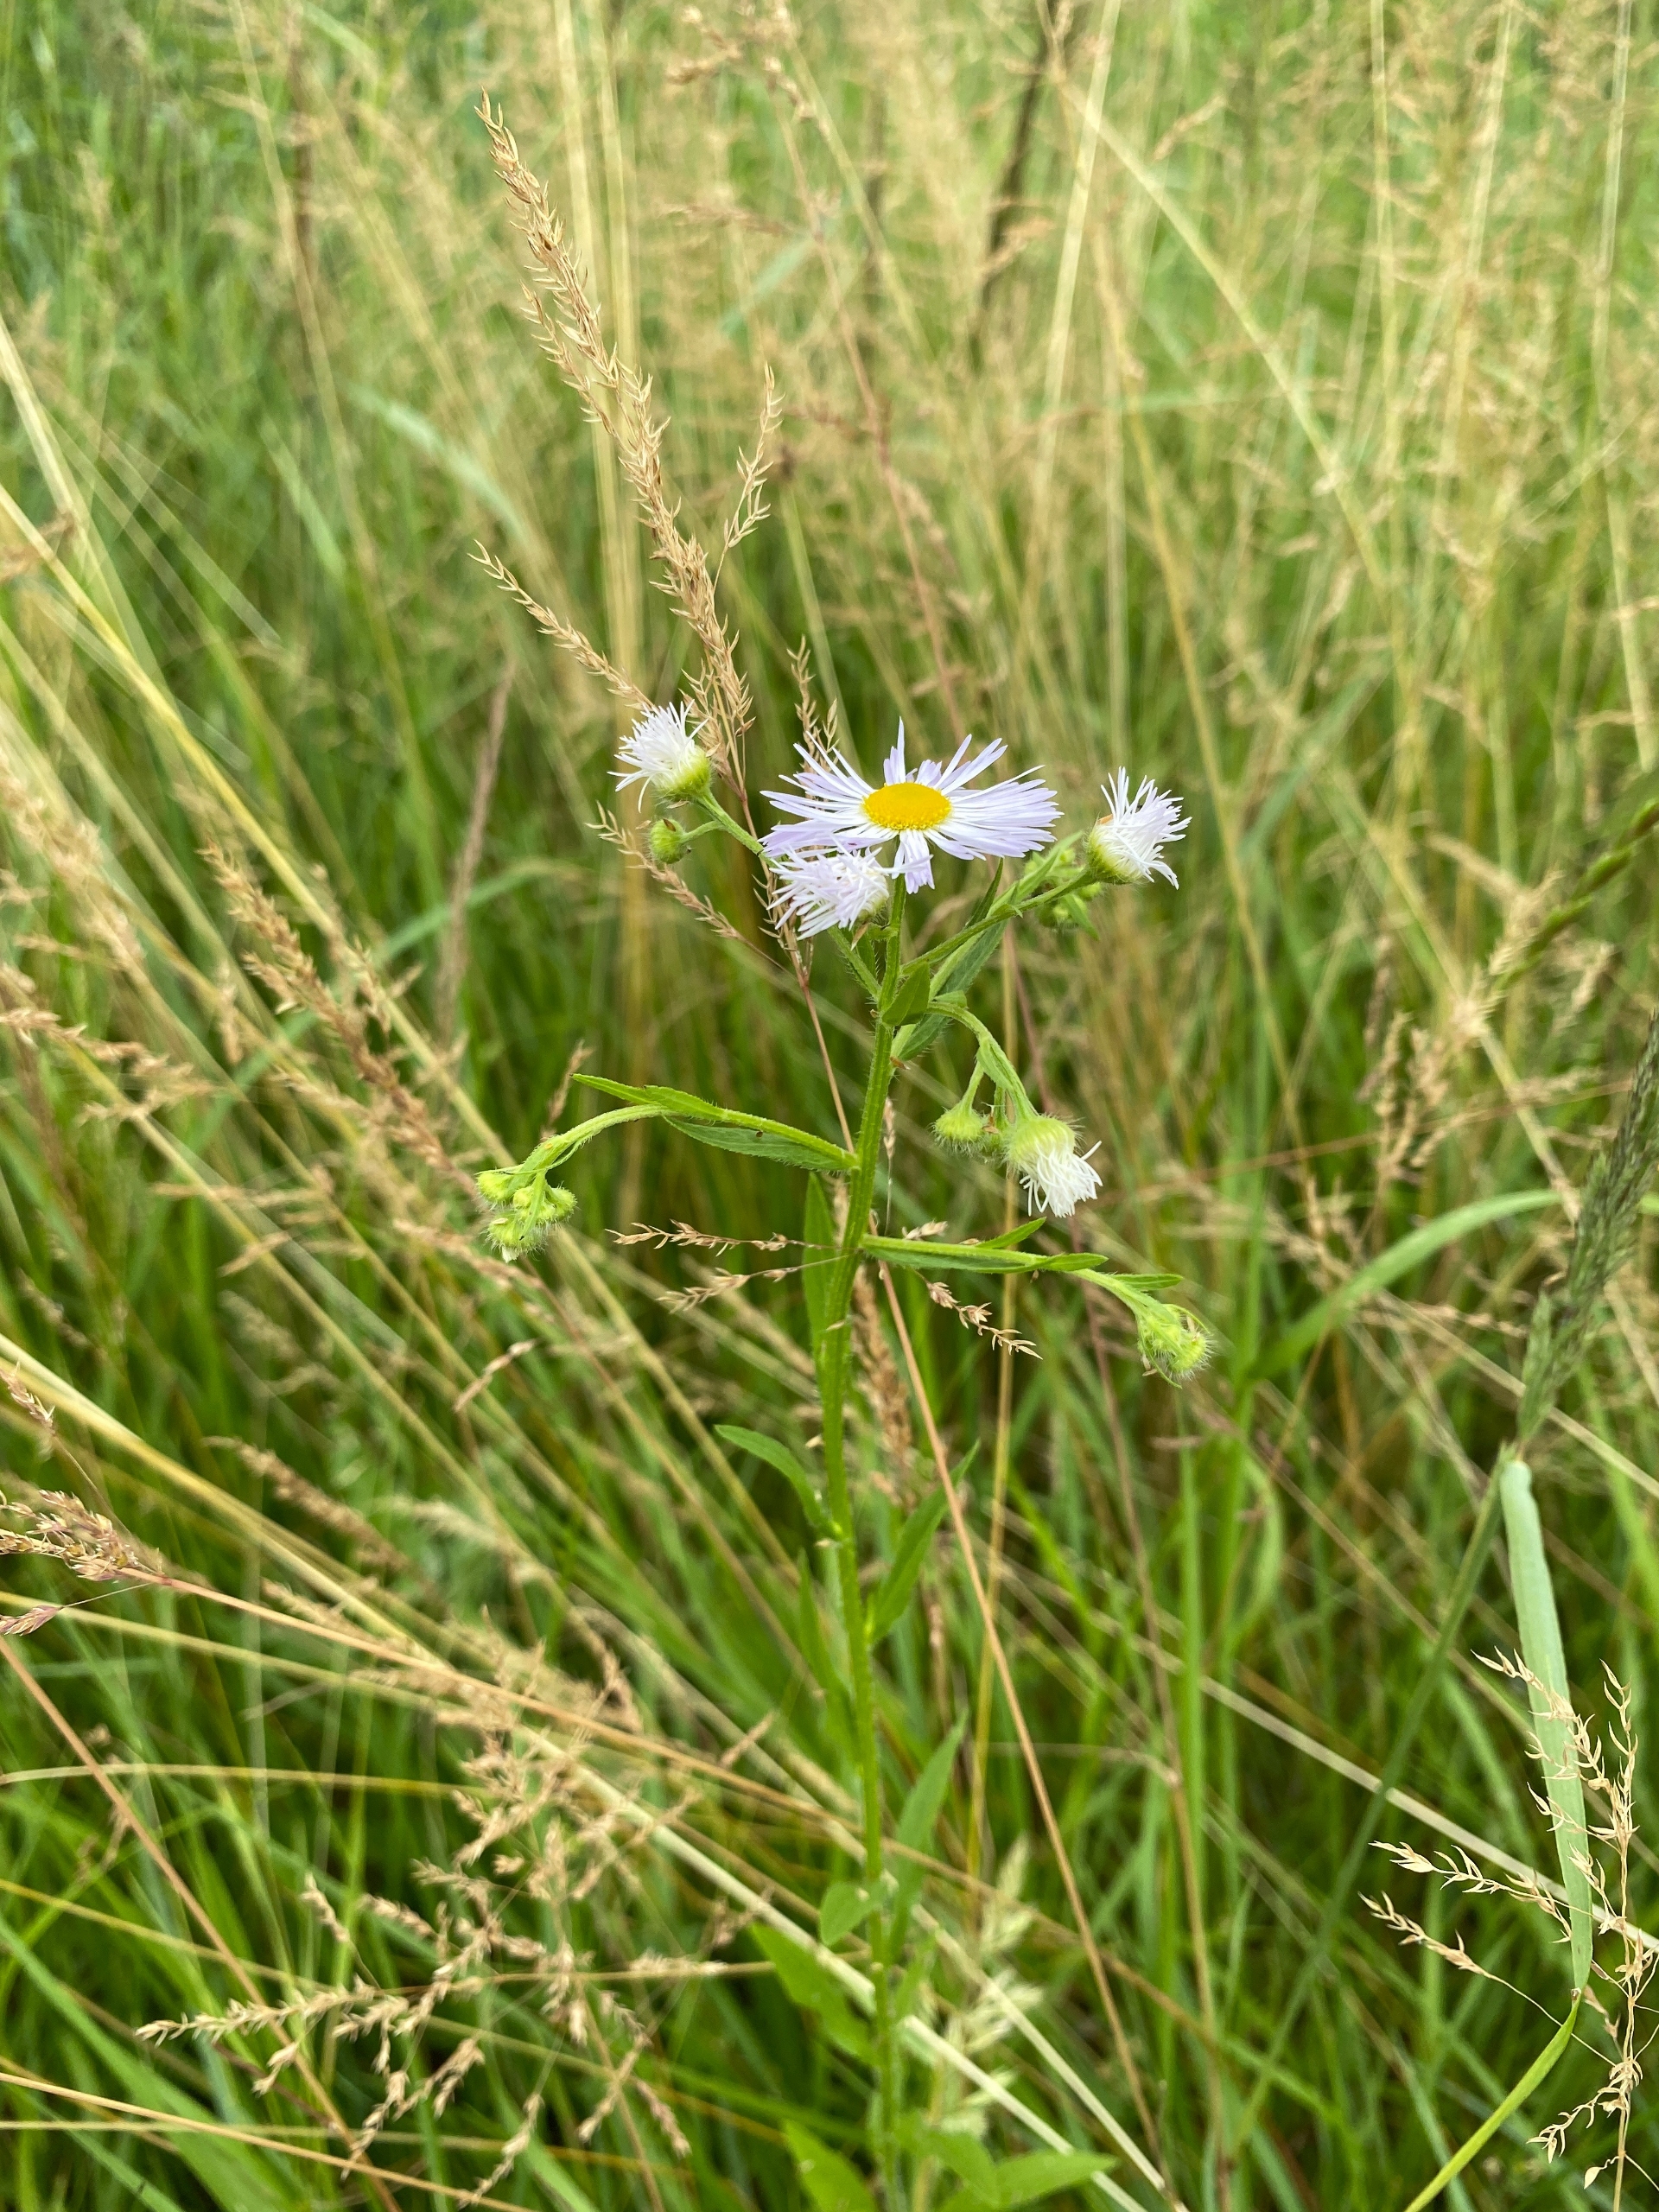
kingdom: Plantae
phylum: Tracheophyta
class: Magnoliopsida
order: Asterales
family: Asteraceae
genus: Erigeron
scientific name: Erigeron annuus
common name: Smalstråle
